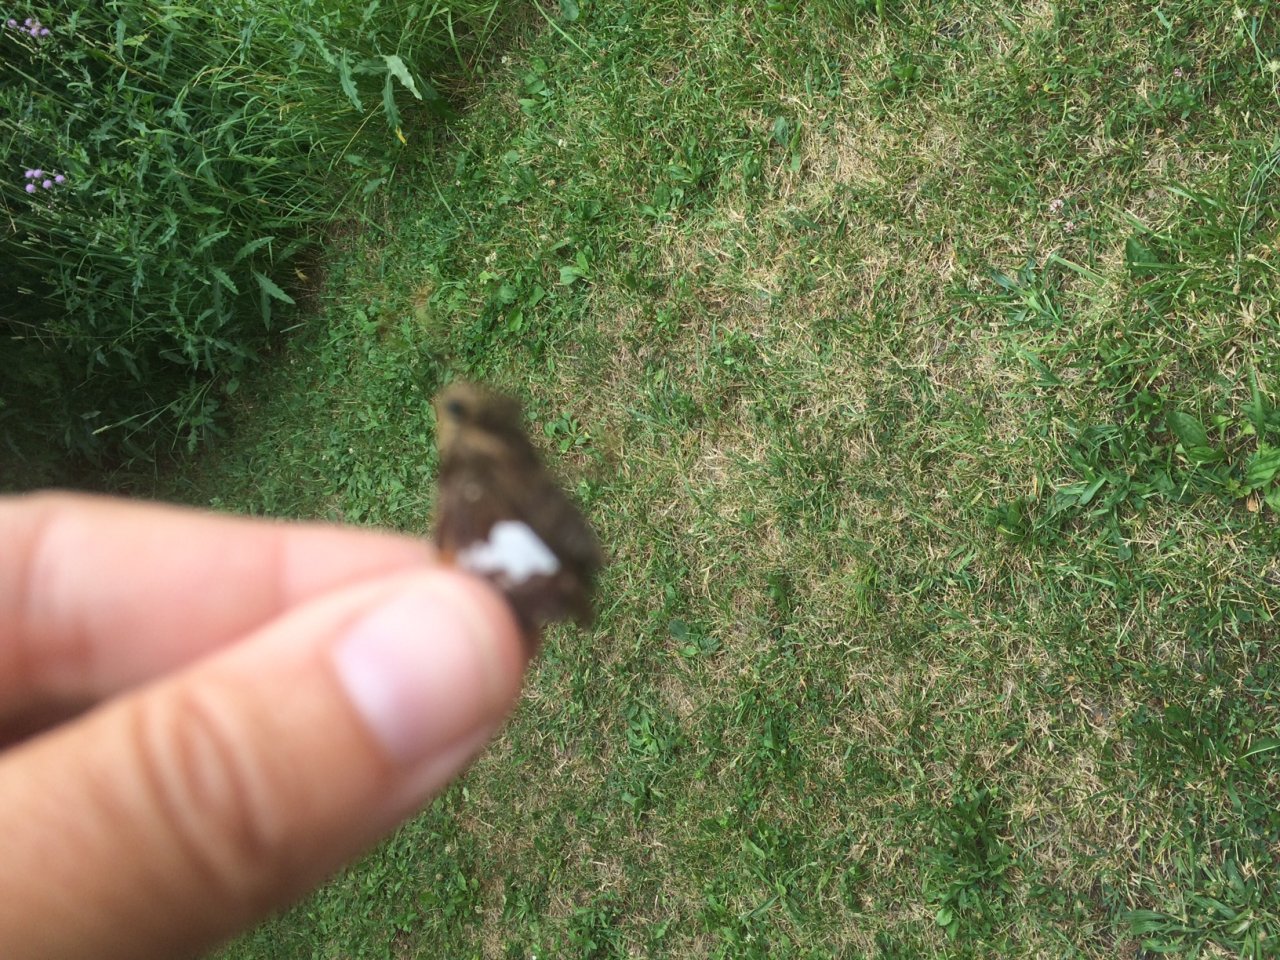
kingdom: Animalia
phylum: Arthropoda
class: Insecta
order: Lepidoptera
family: Hesperiidae
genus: Epargyreus
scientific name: Epargyreus clarus
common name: Silver-spotted Skipper
